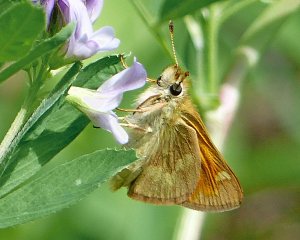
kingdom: Animalia
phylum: Arthropoda
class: Insecta
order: Lepidoptera
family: Hesperiidae
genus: Ochlodes
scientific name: Ochlodes sylvanoides
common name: Woodland Skipper
